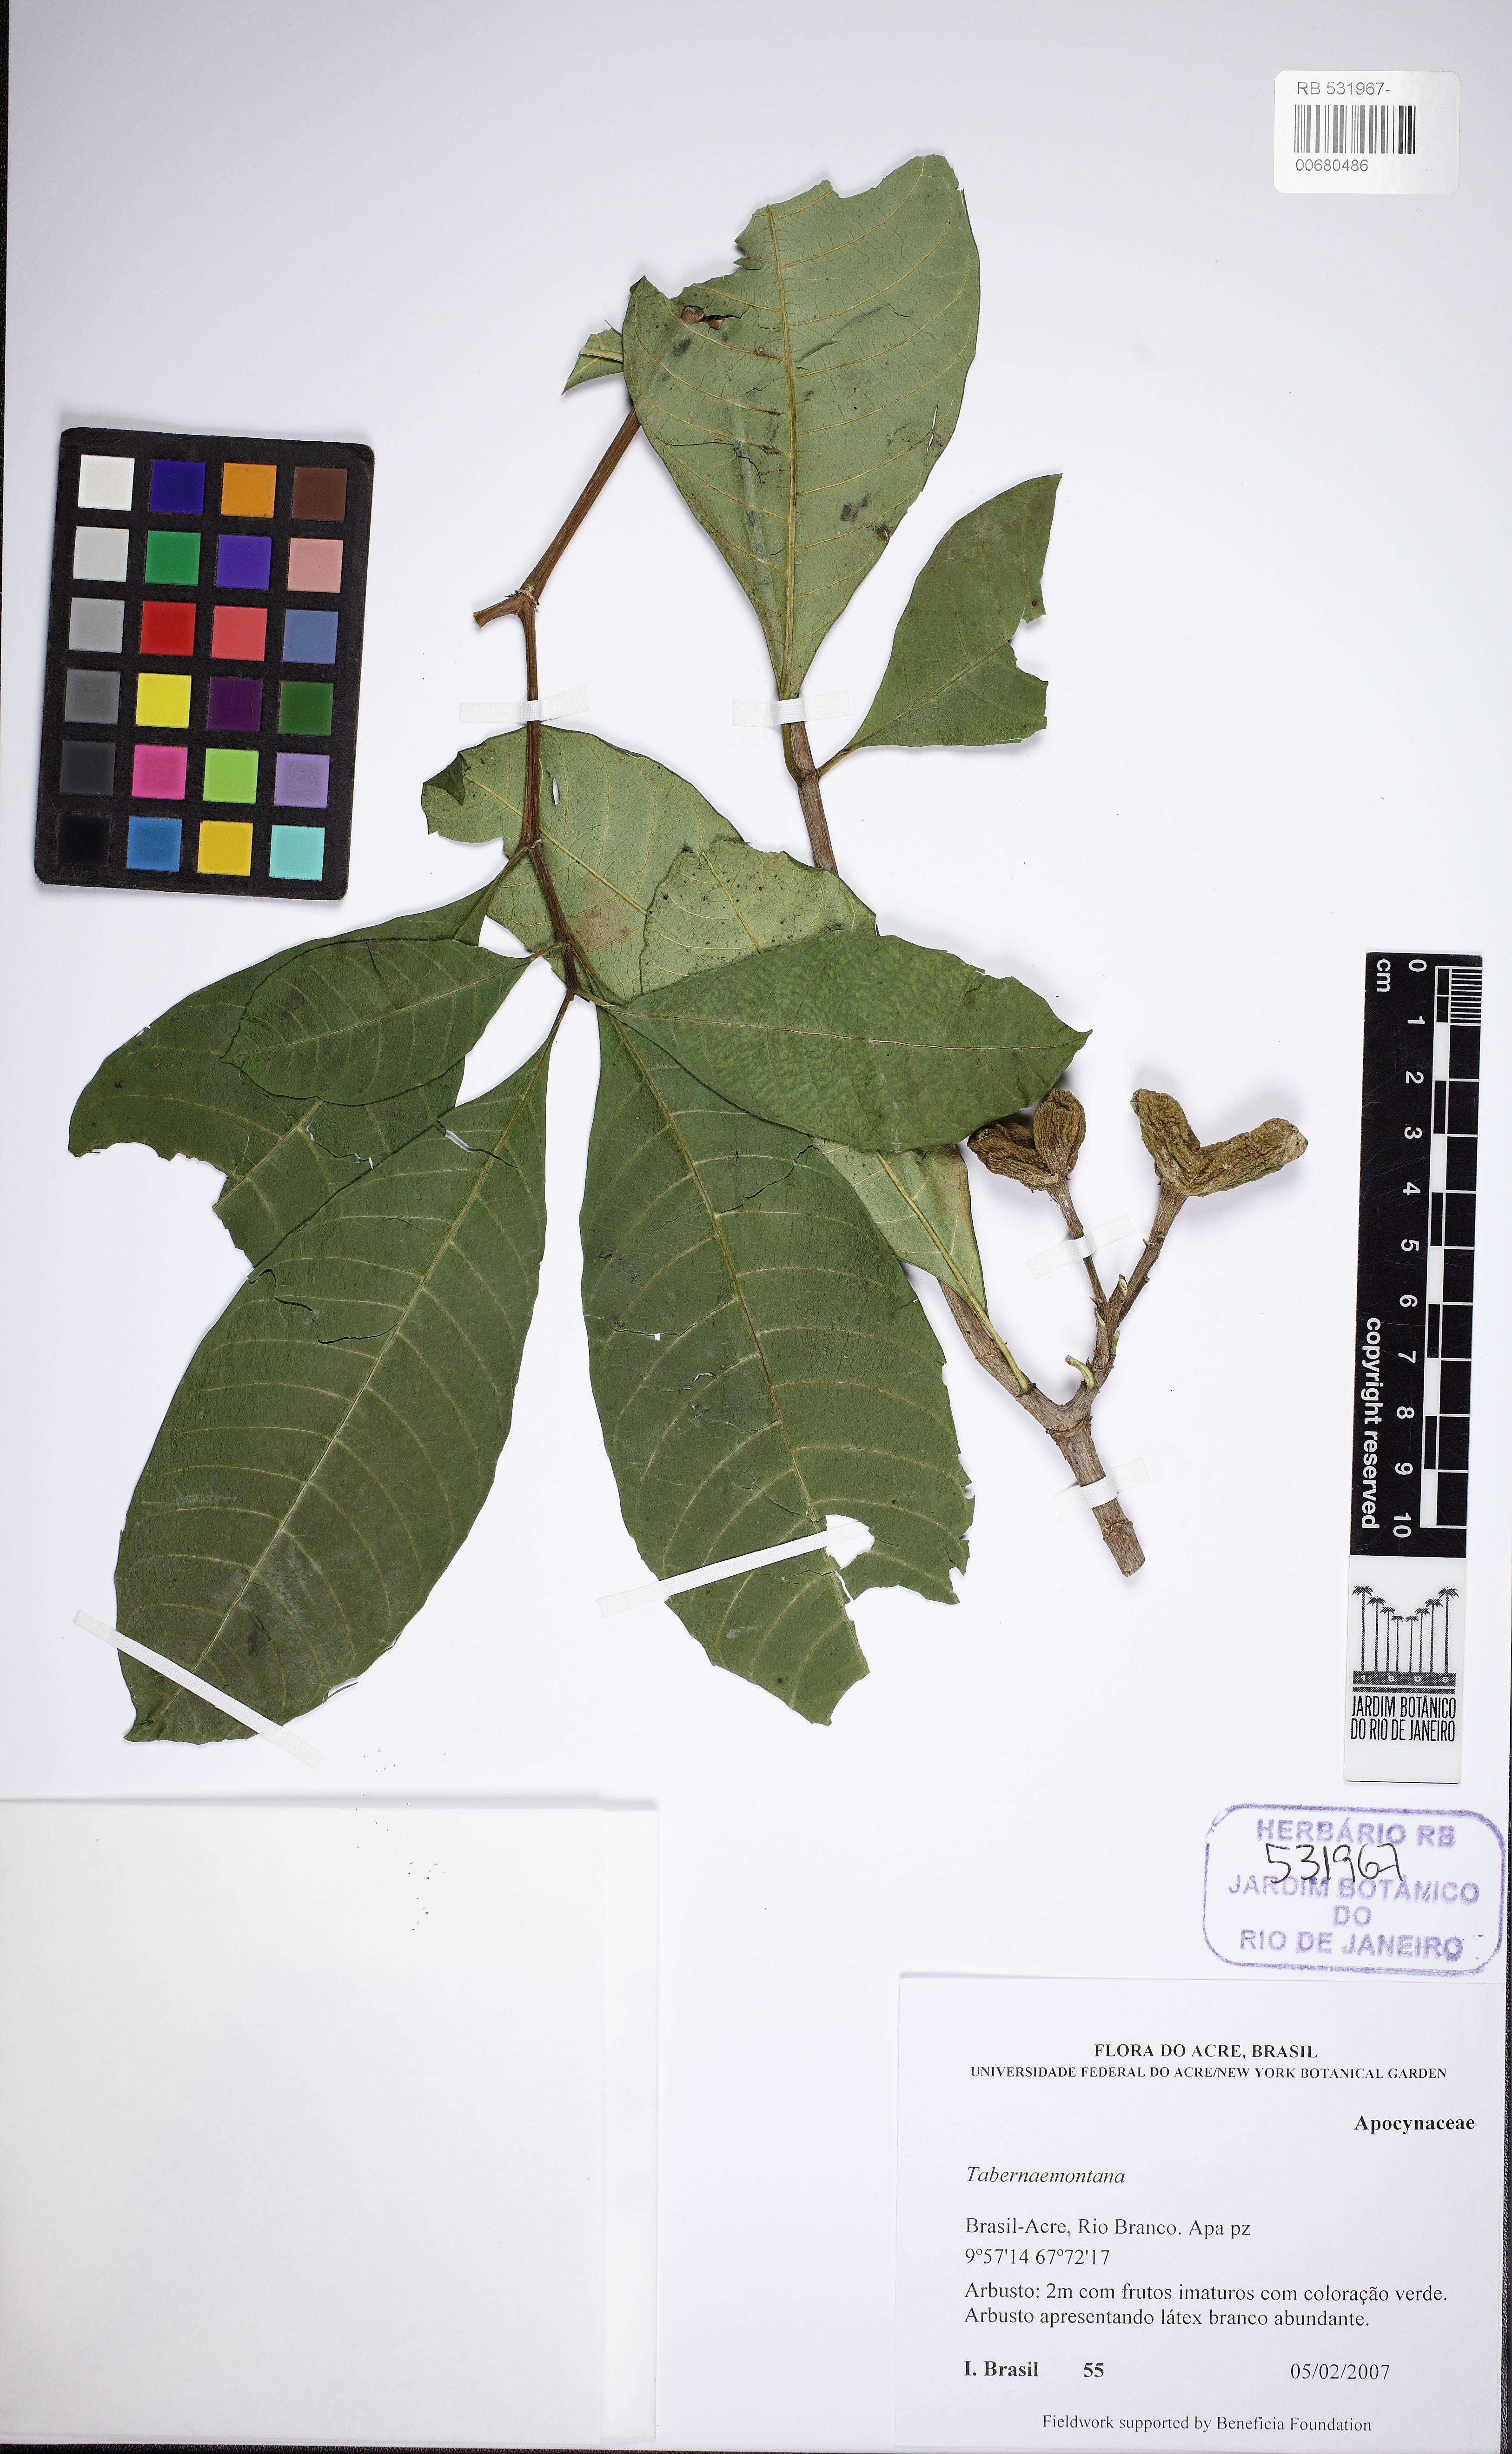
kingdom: Plantae
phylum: Tracheophyta
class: Magnoliopsida
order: Gentianales
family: Apocynaceae
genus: Tabernaemontana
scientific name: Tabernaemontana
